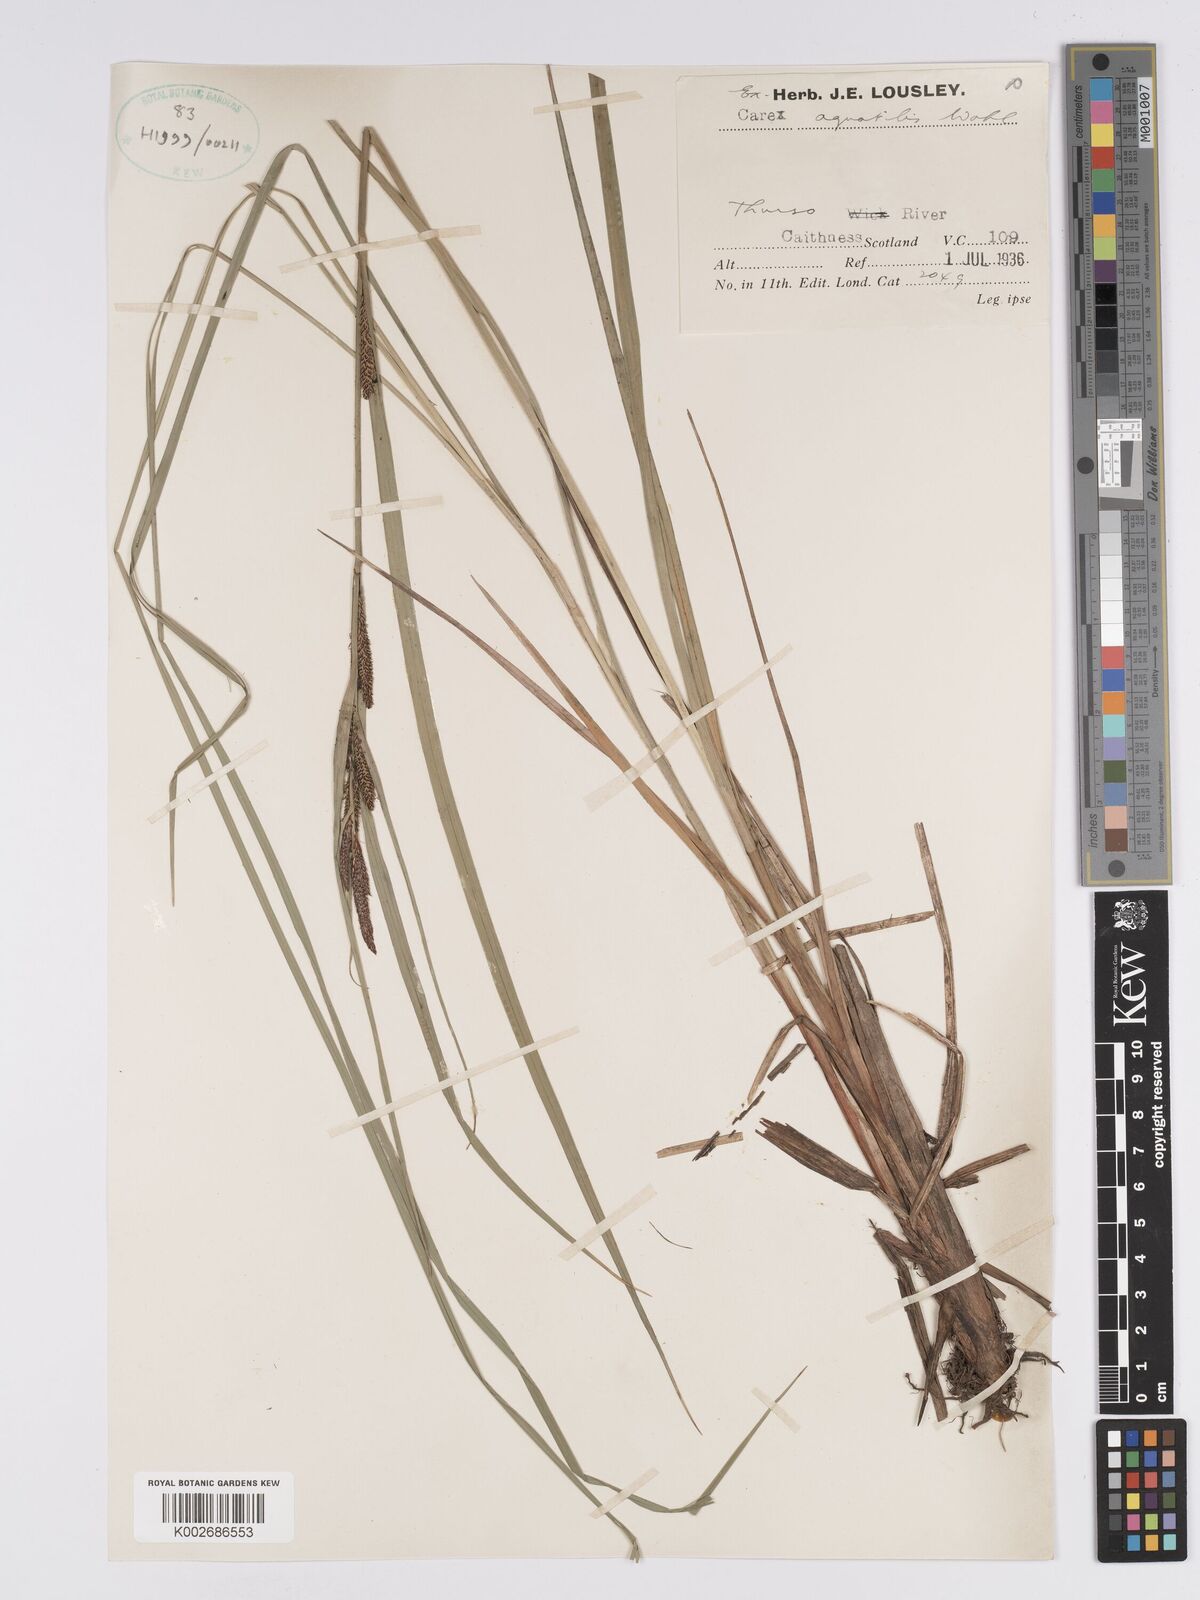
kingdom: Plantae
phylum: Tracheophyta
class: Liliopsida
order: Poales
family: Cyperaceae
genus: Carex
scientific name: Carex aquatilis
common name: Water sedge
